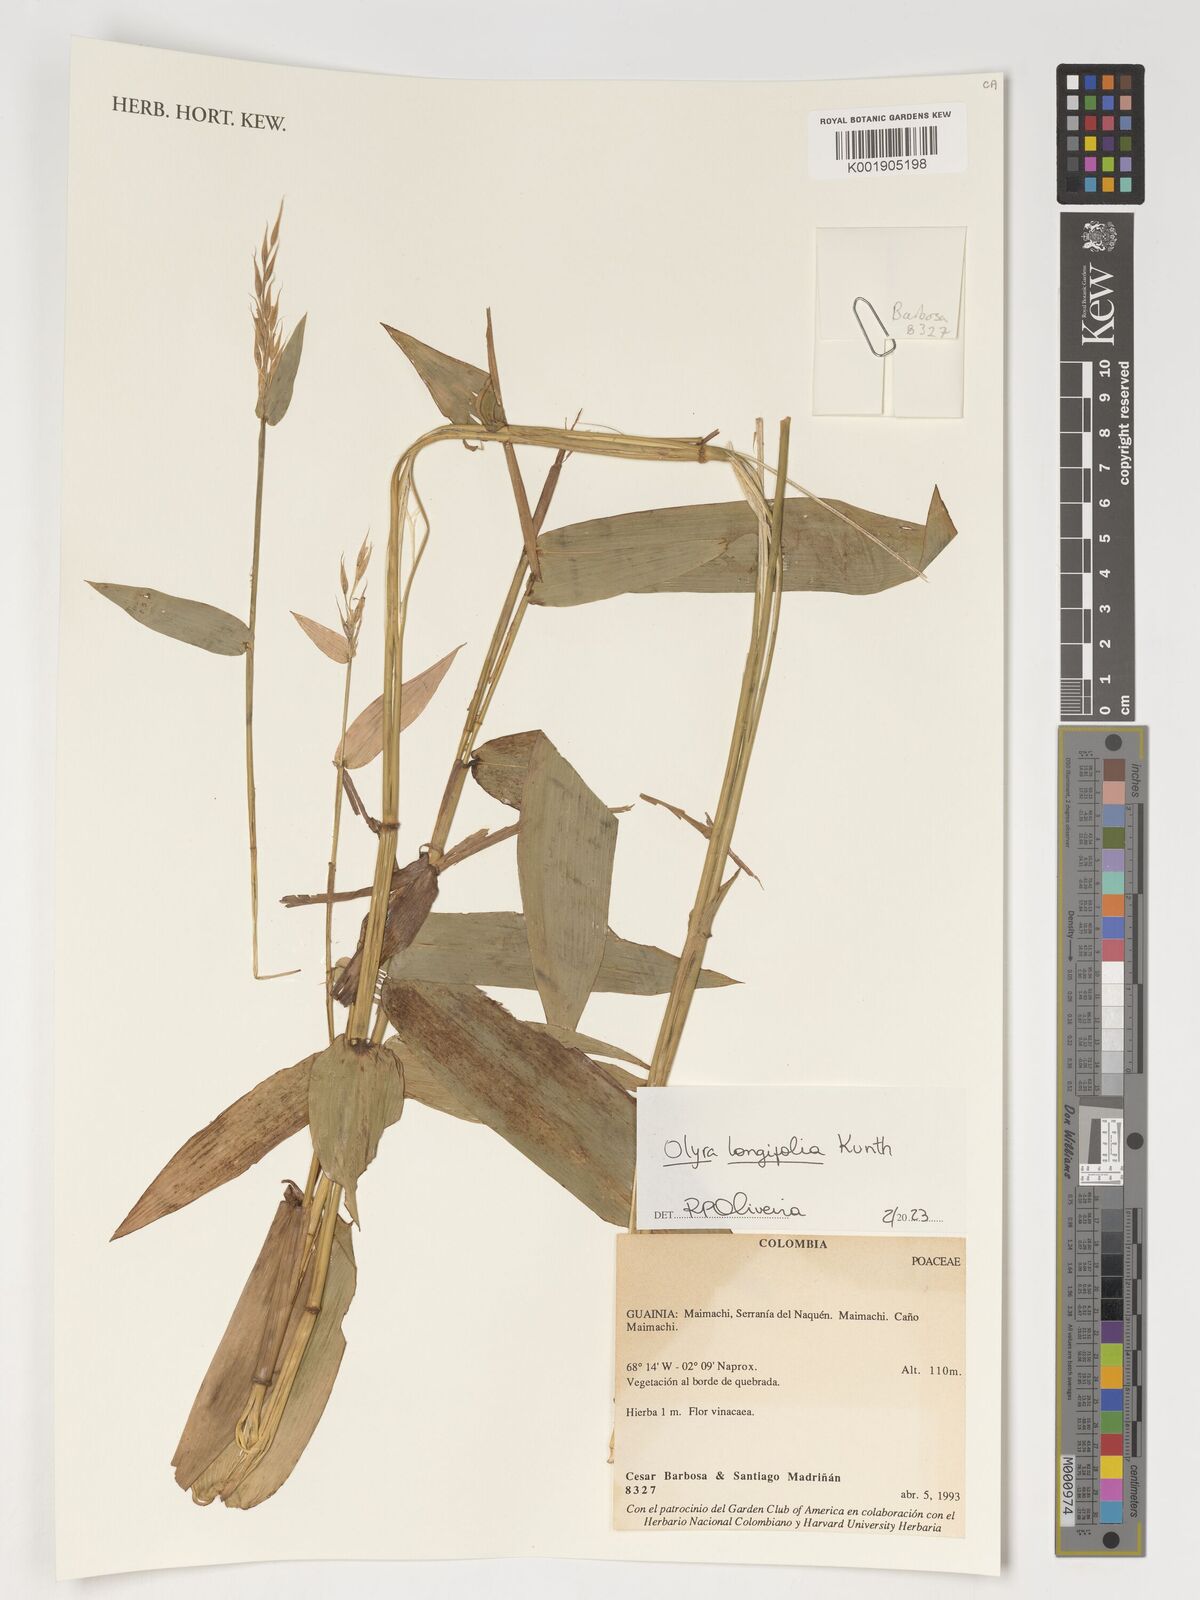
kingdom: Plantae
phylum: Tracheophyta
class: Liliopsida
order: Poales
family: Poaceae
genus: Olyra
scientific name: Olyra longifolia
